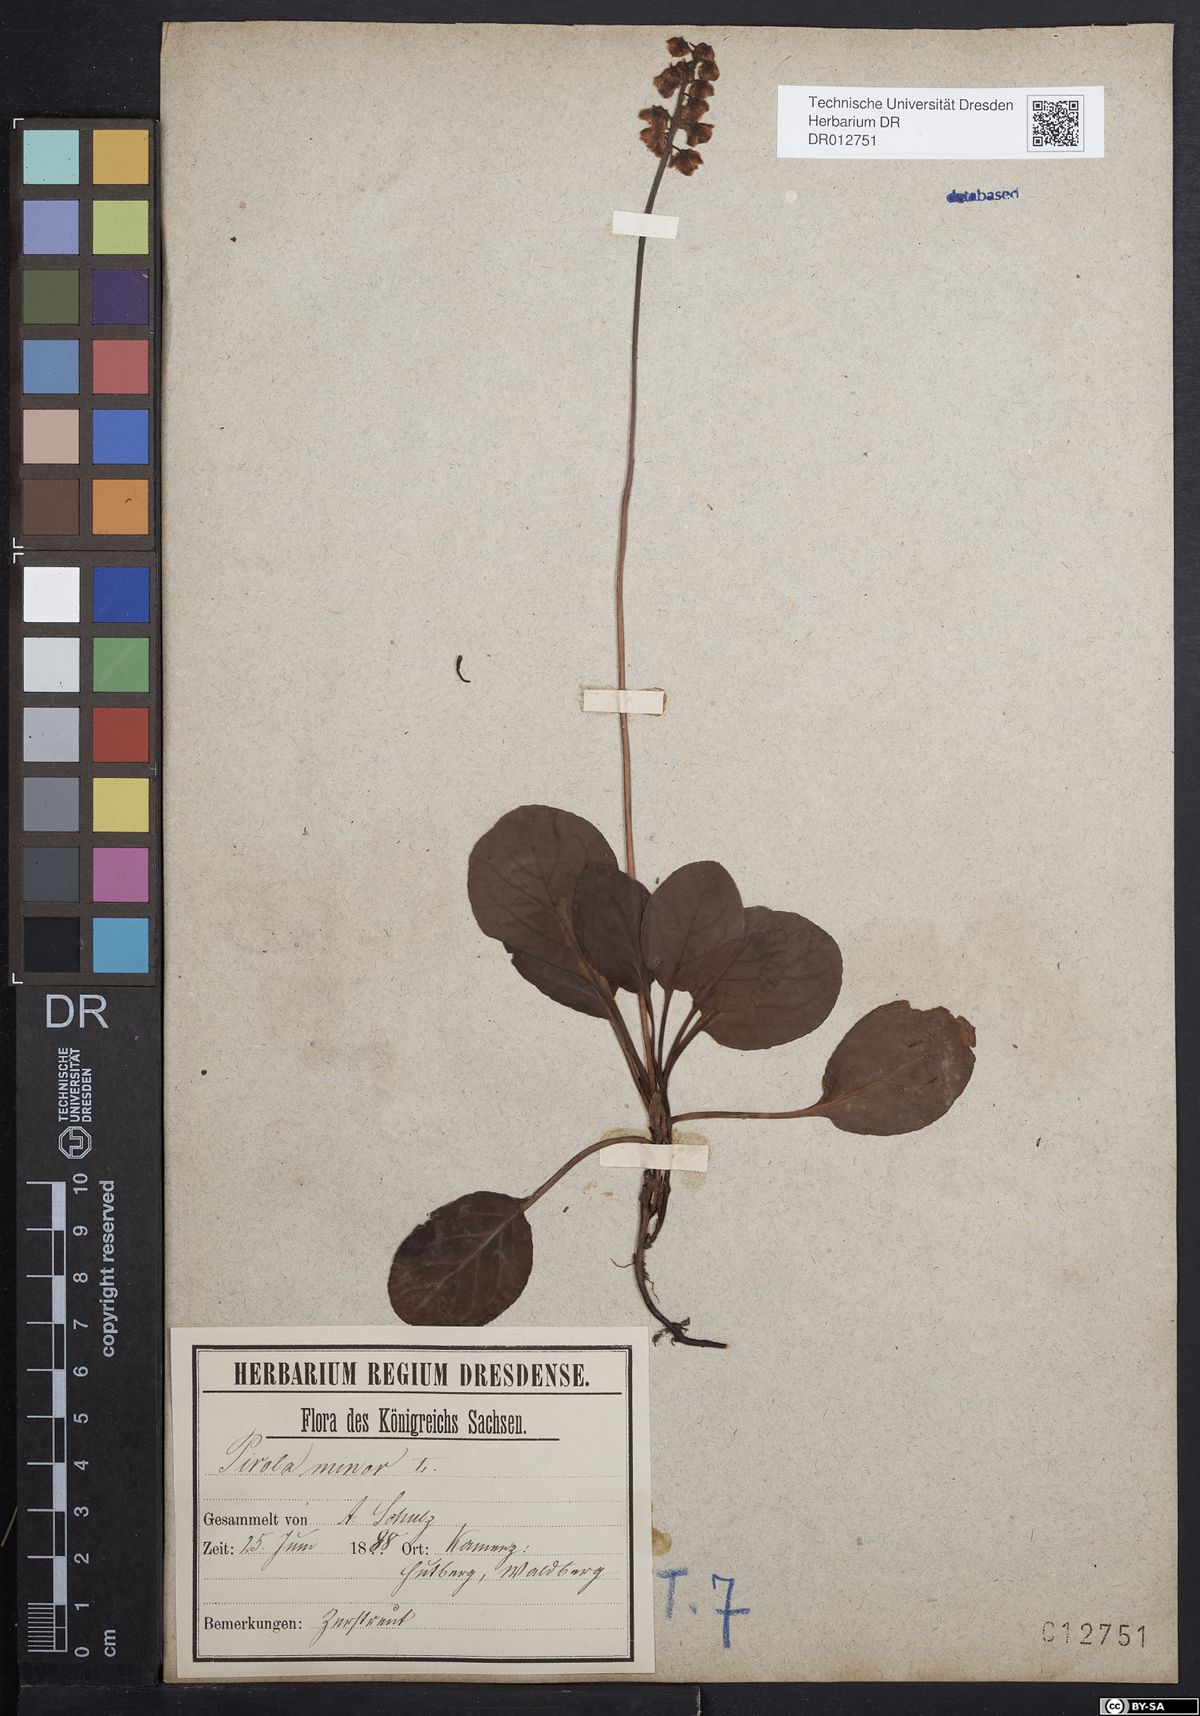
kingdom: Plantae
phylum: Tracheophyta
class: Magnoliopsida
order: Ericales
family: Ericaceae
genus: Pyrola
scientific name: Pyrola minor
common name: Common wintergreen
